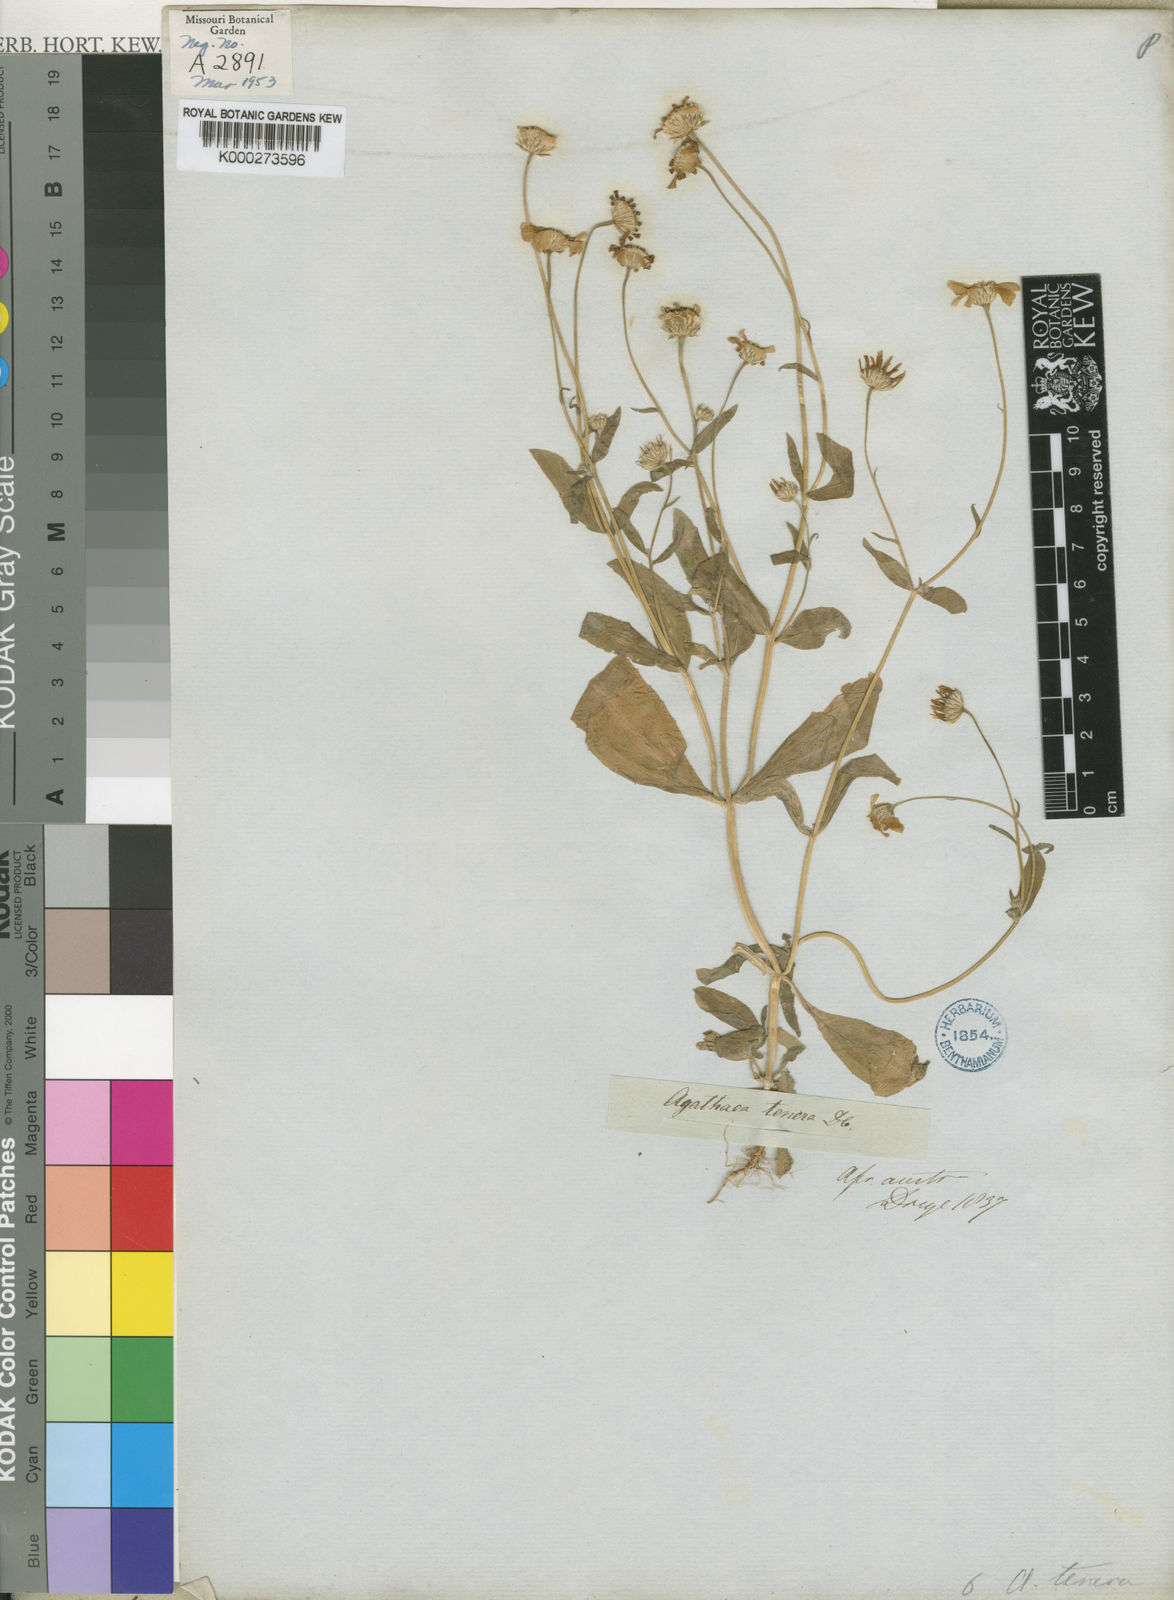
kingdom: Plantae
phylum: Tracheophyta
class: Magnoliopsida
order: Asterales
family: Asteraceae
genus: Felicia
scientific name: Felicia tenera
